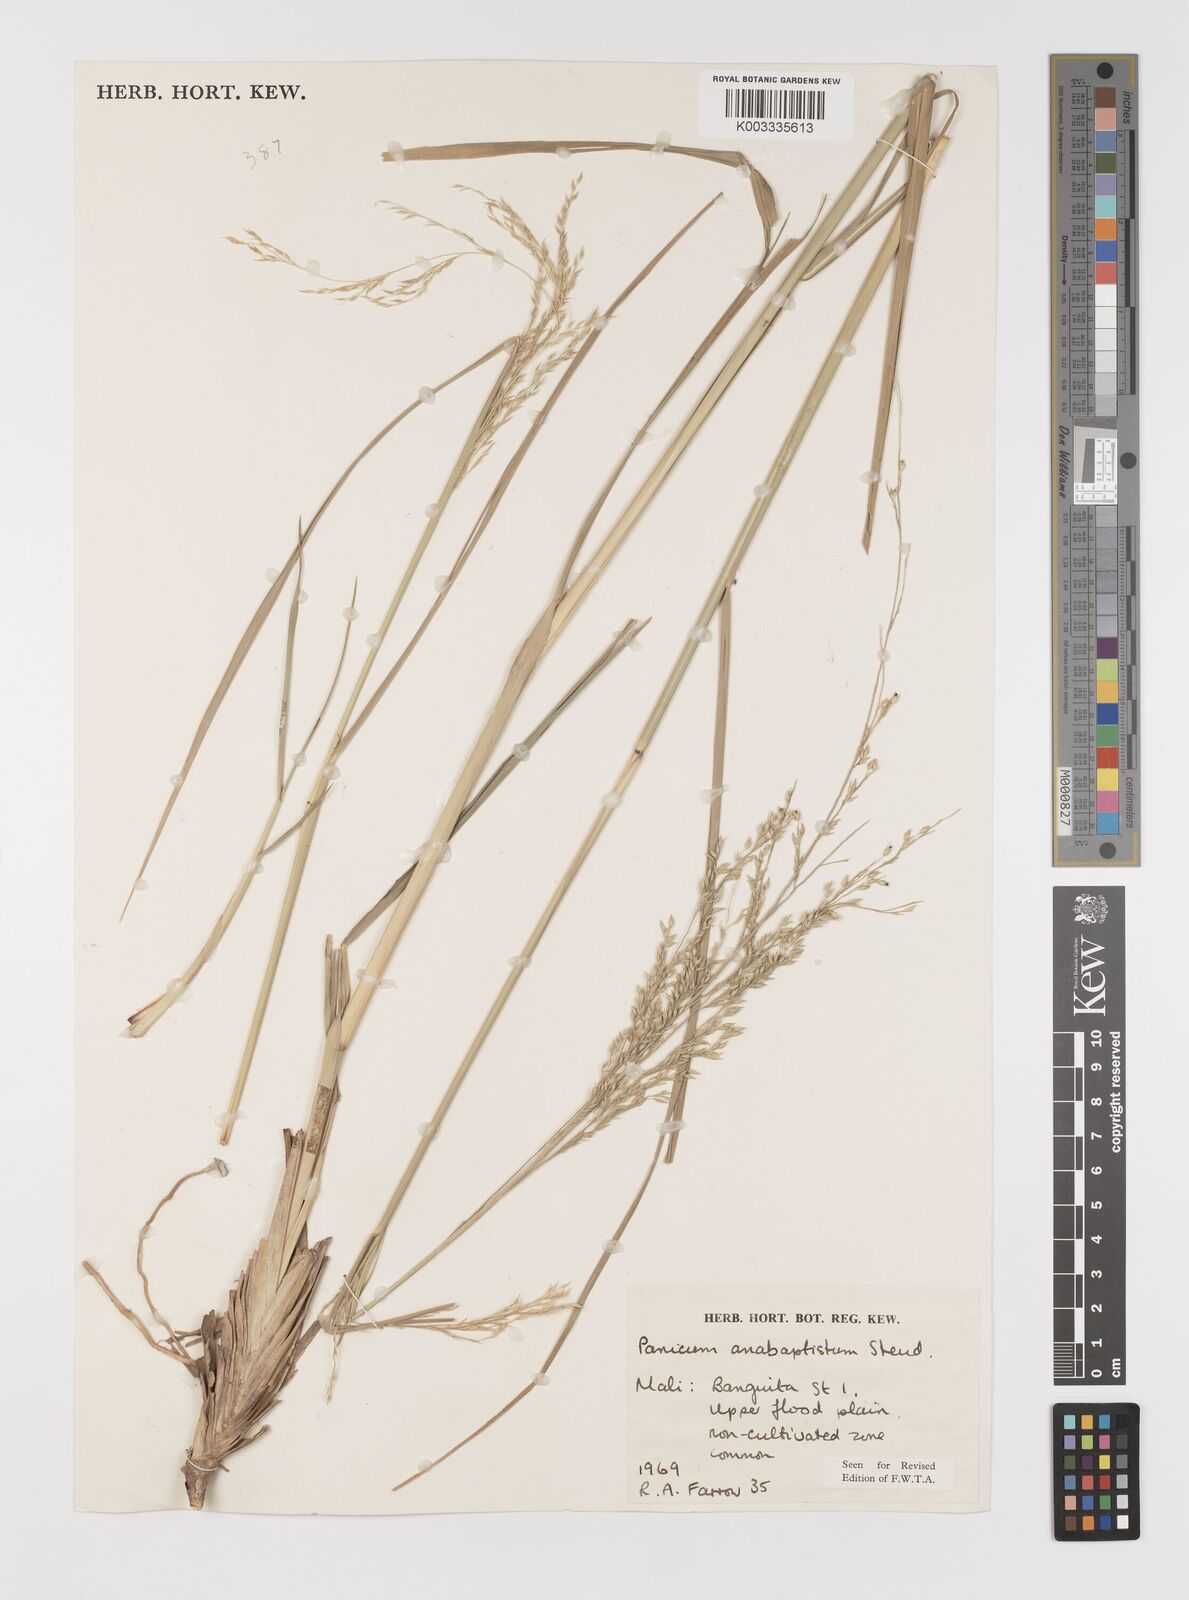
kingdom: Plantae
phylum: Tracheophyta
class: Liliopsida
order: Poales
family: Poaceae
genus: Panicum
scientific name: Panicum anabaptistum
